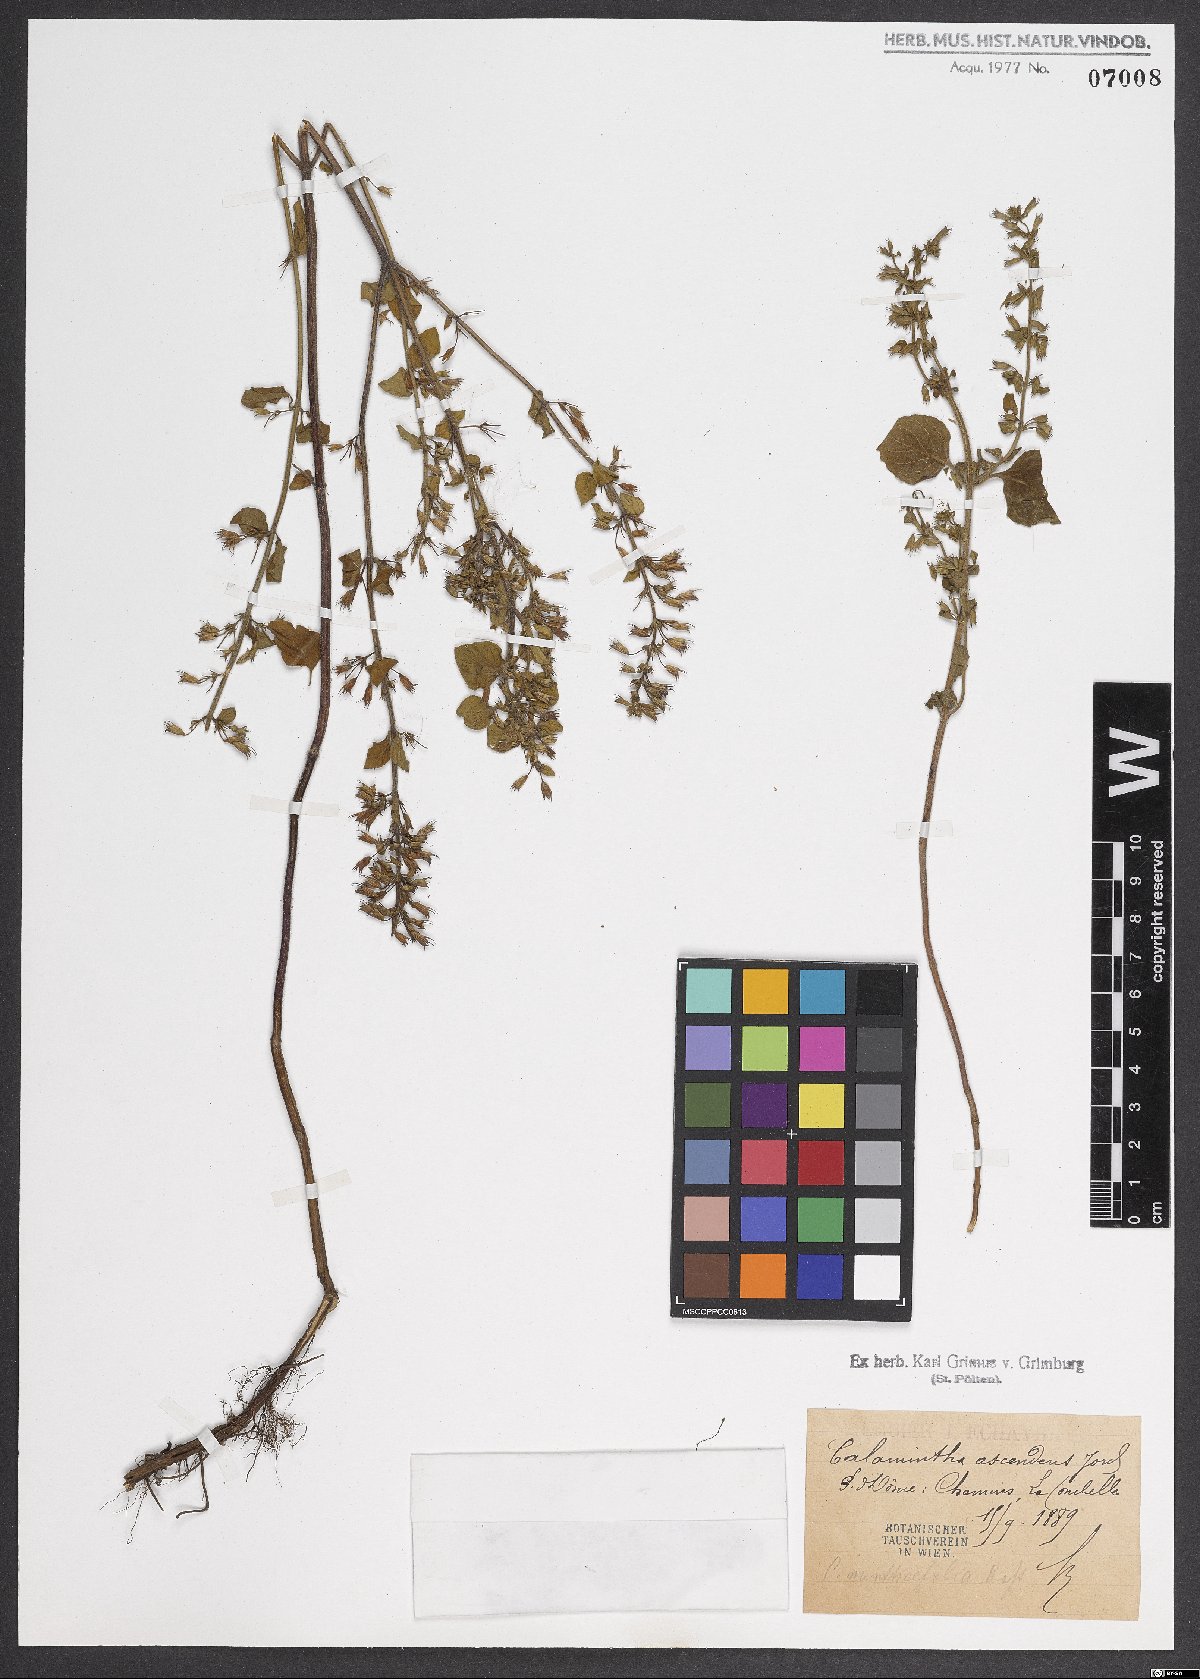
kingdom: Plantae
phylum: Tracheophyta
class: Magnoliopsida
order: Lamiales
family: Lamiaceae
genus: Clinopodium
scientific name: Clinopodium menthifolium
